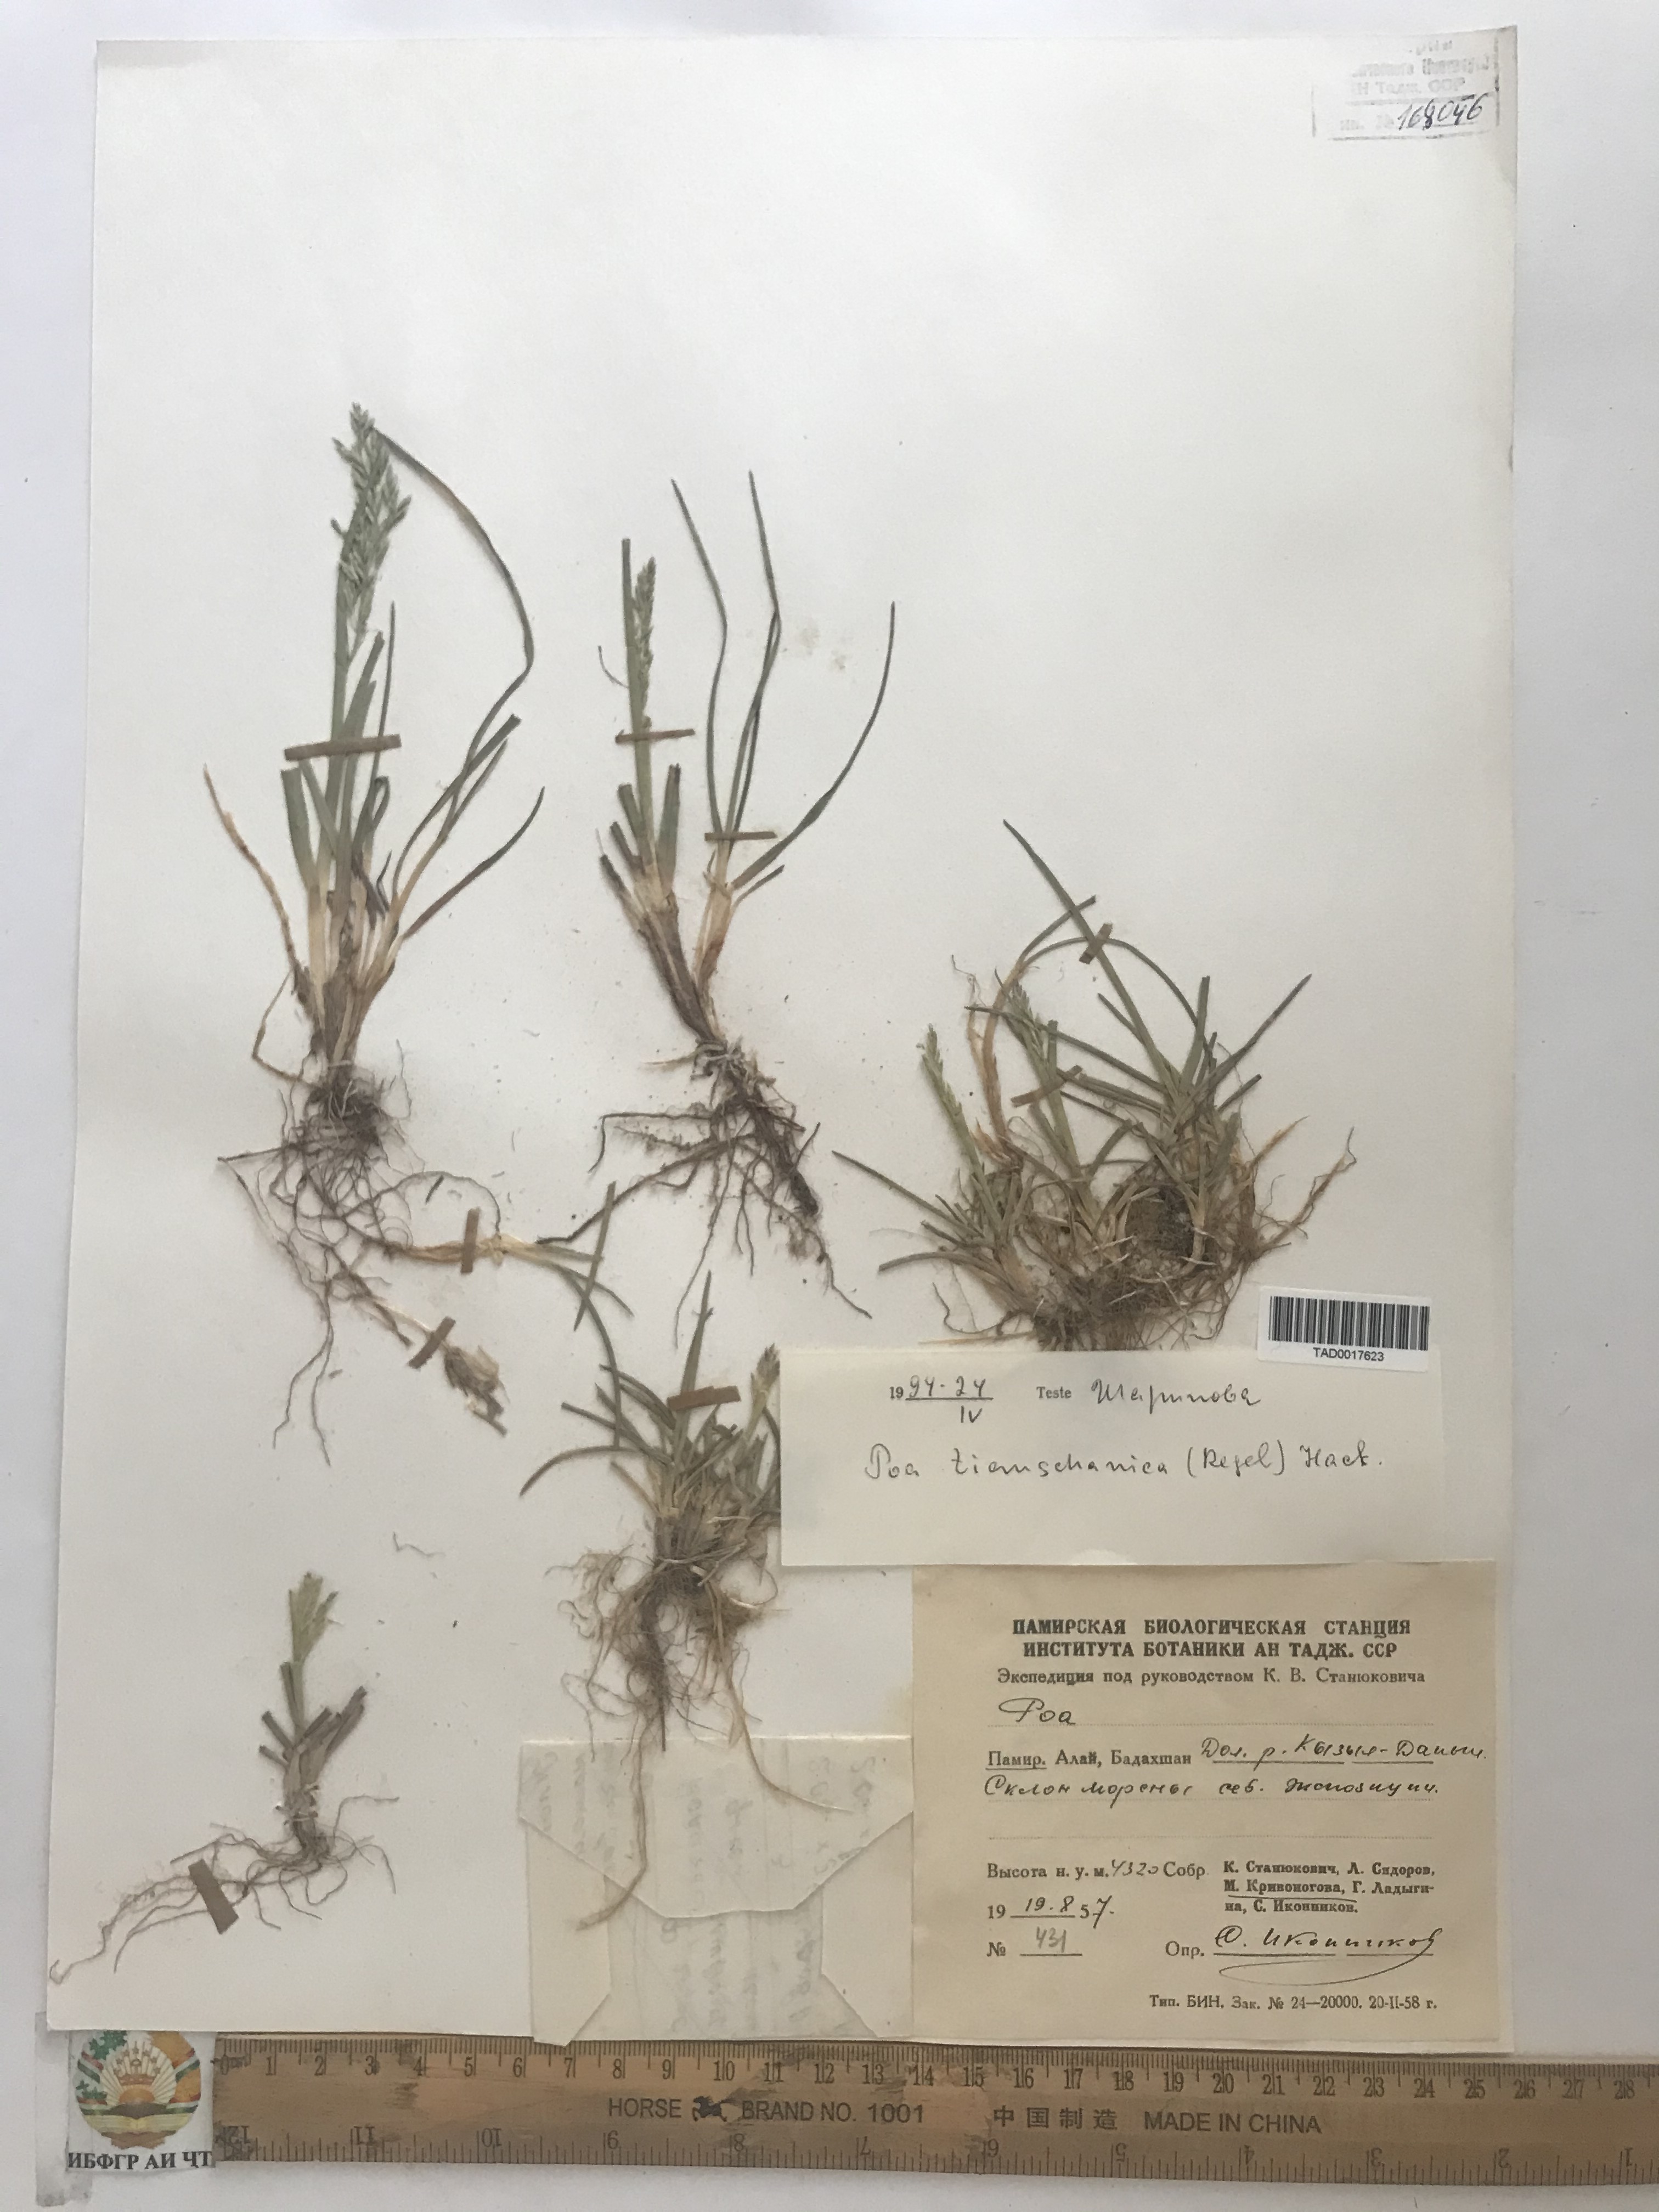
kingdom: Plantae
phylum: Tracheophyta
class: Liliopsida
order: Poales
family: Poaceae
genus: Poa
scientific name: Poa tianschanica
